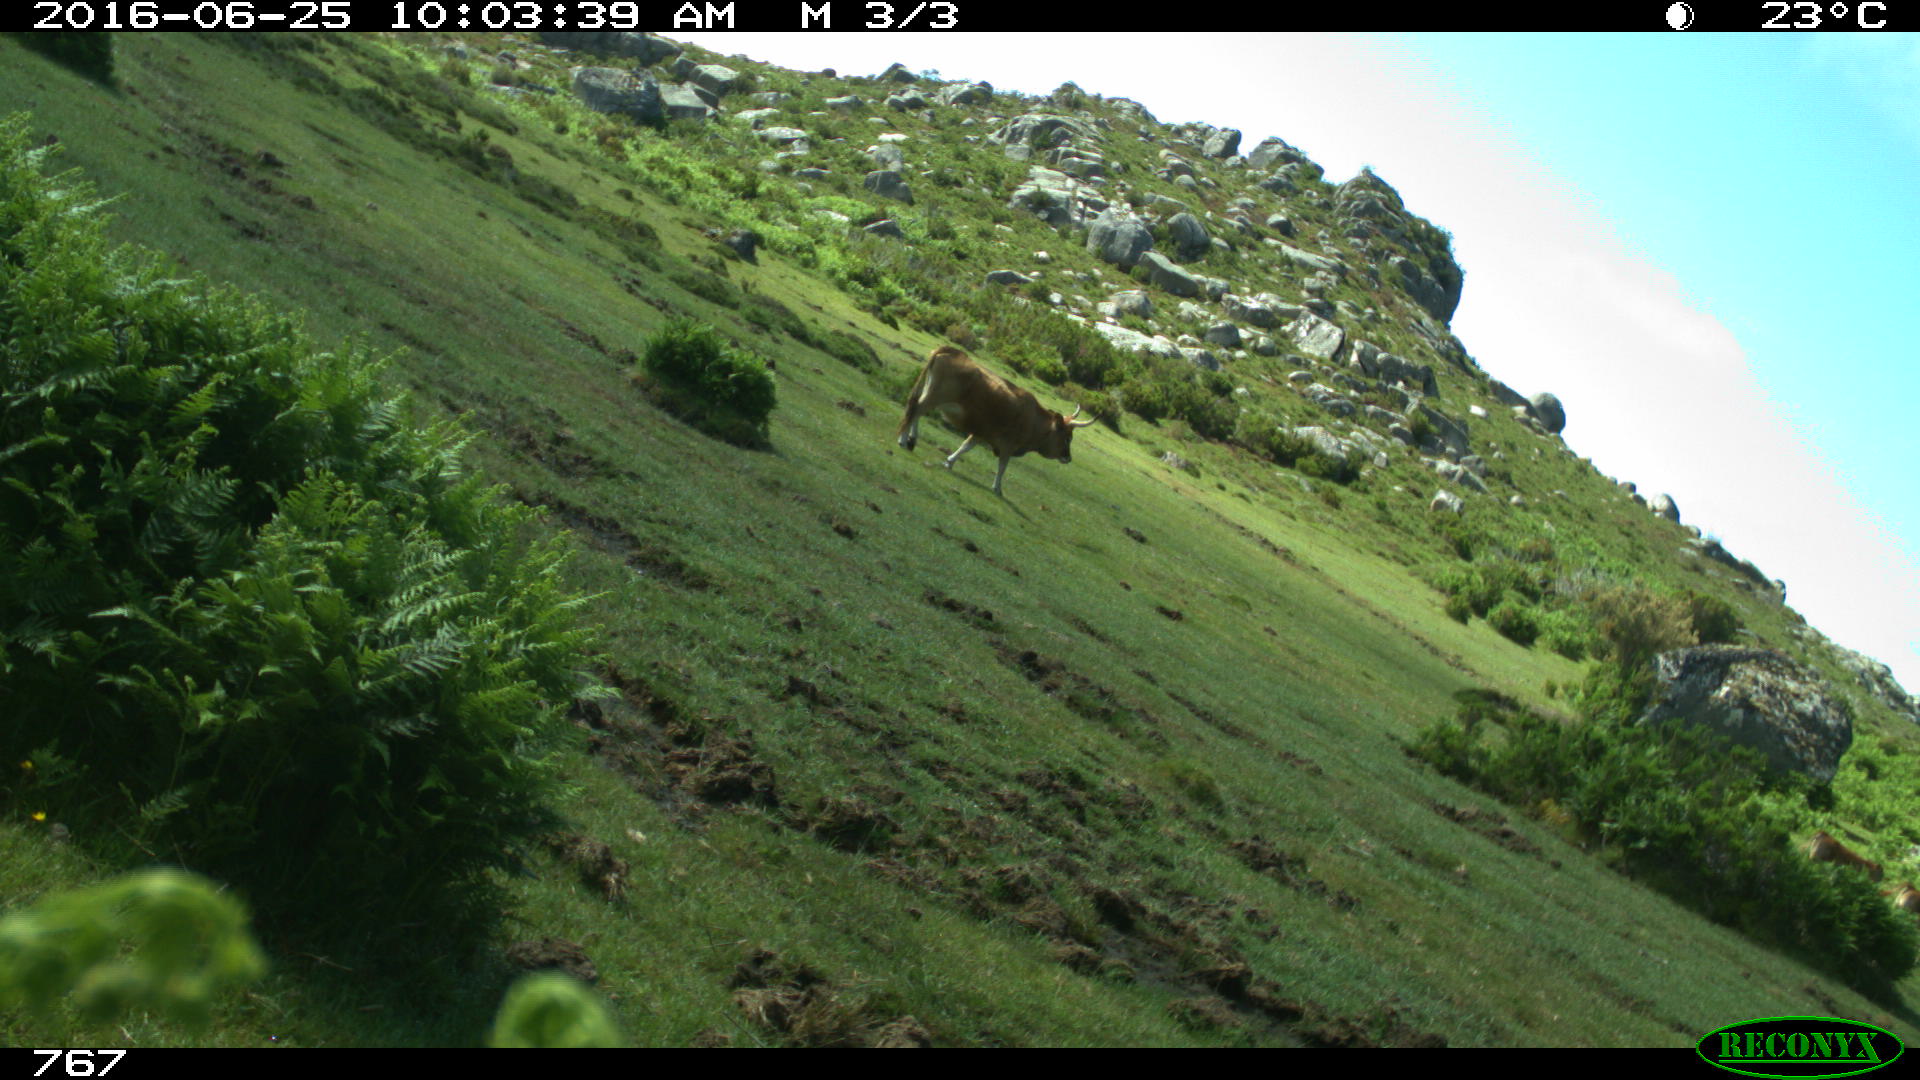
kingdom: Animalia
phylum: Chordata
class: Mammalia
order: Artiodactyla
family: Bovidae
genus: Bos
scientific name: Bos taurus
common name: Domesticated cattle
